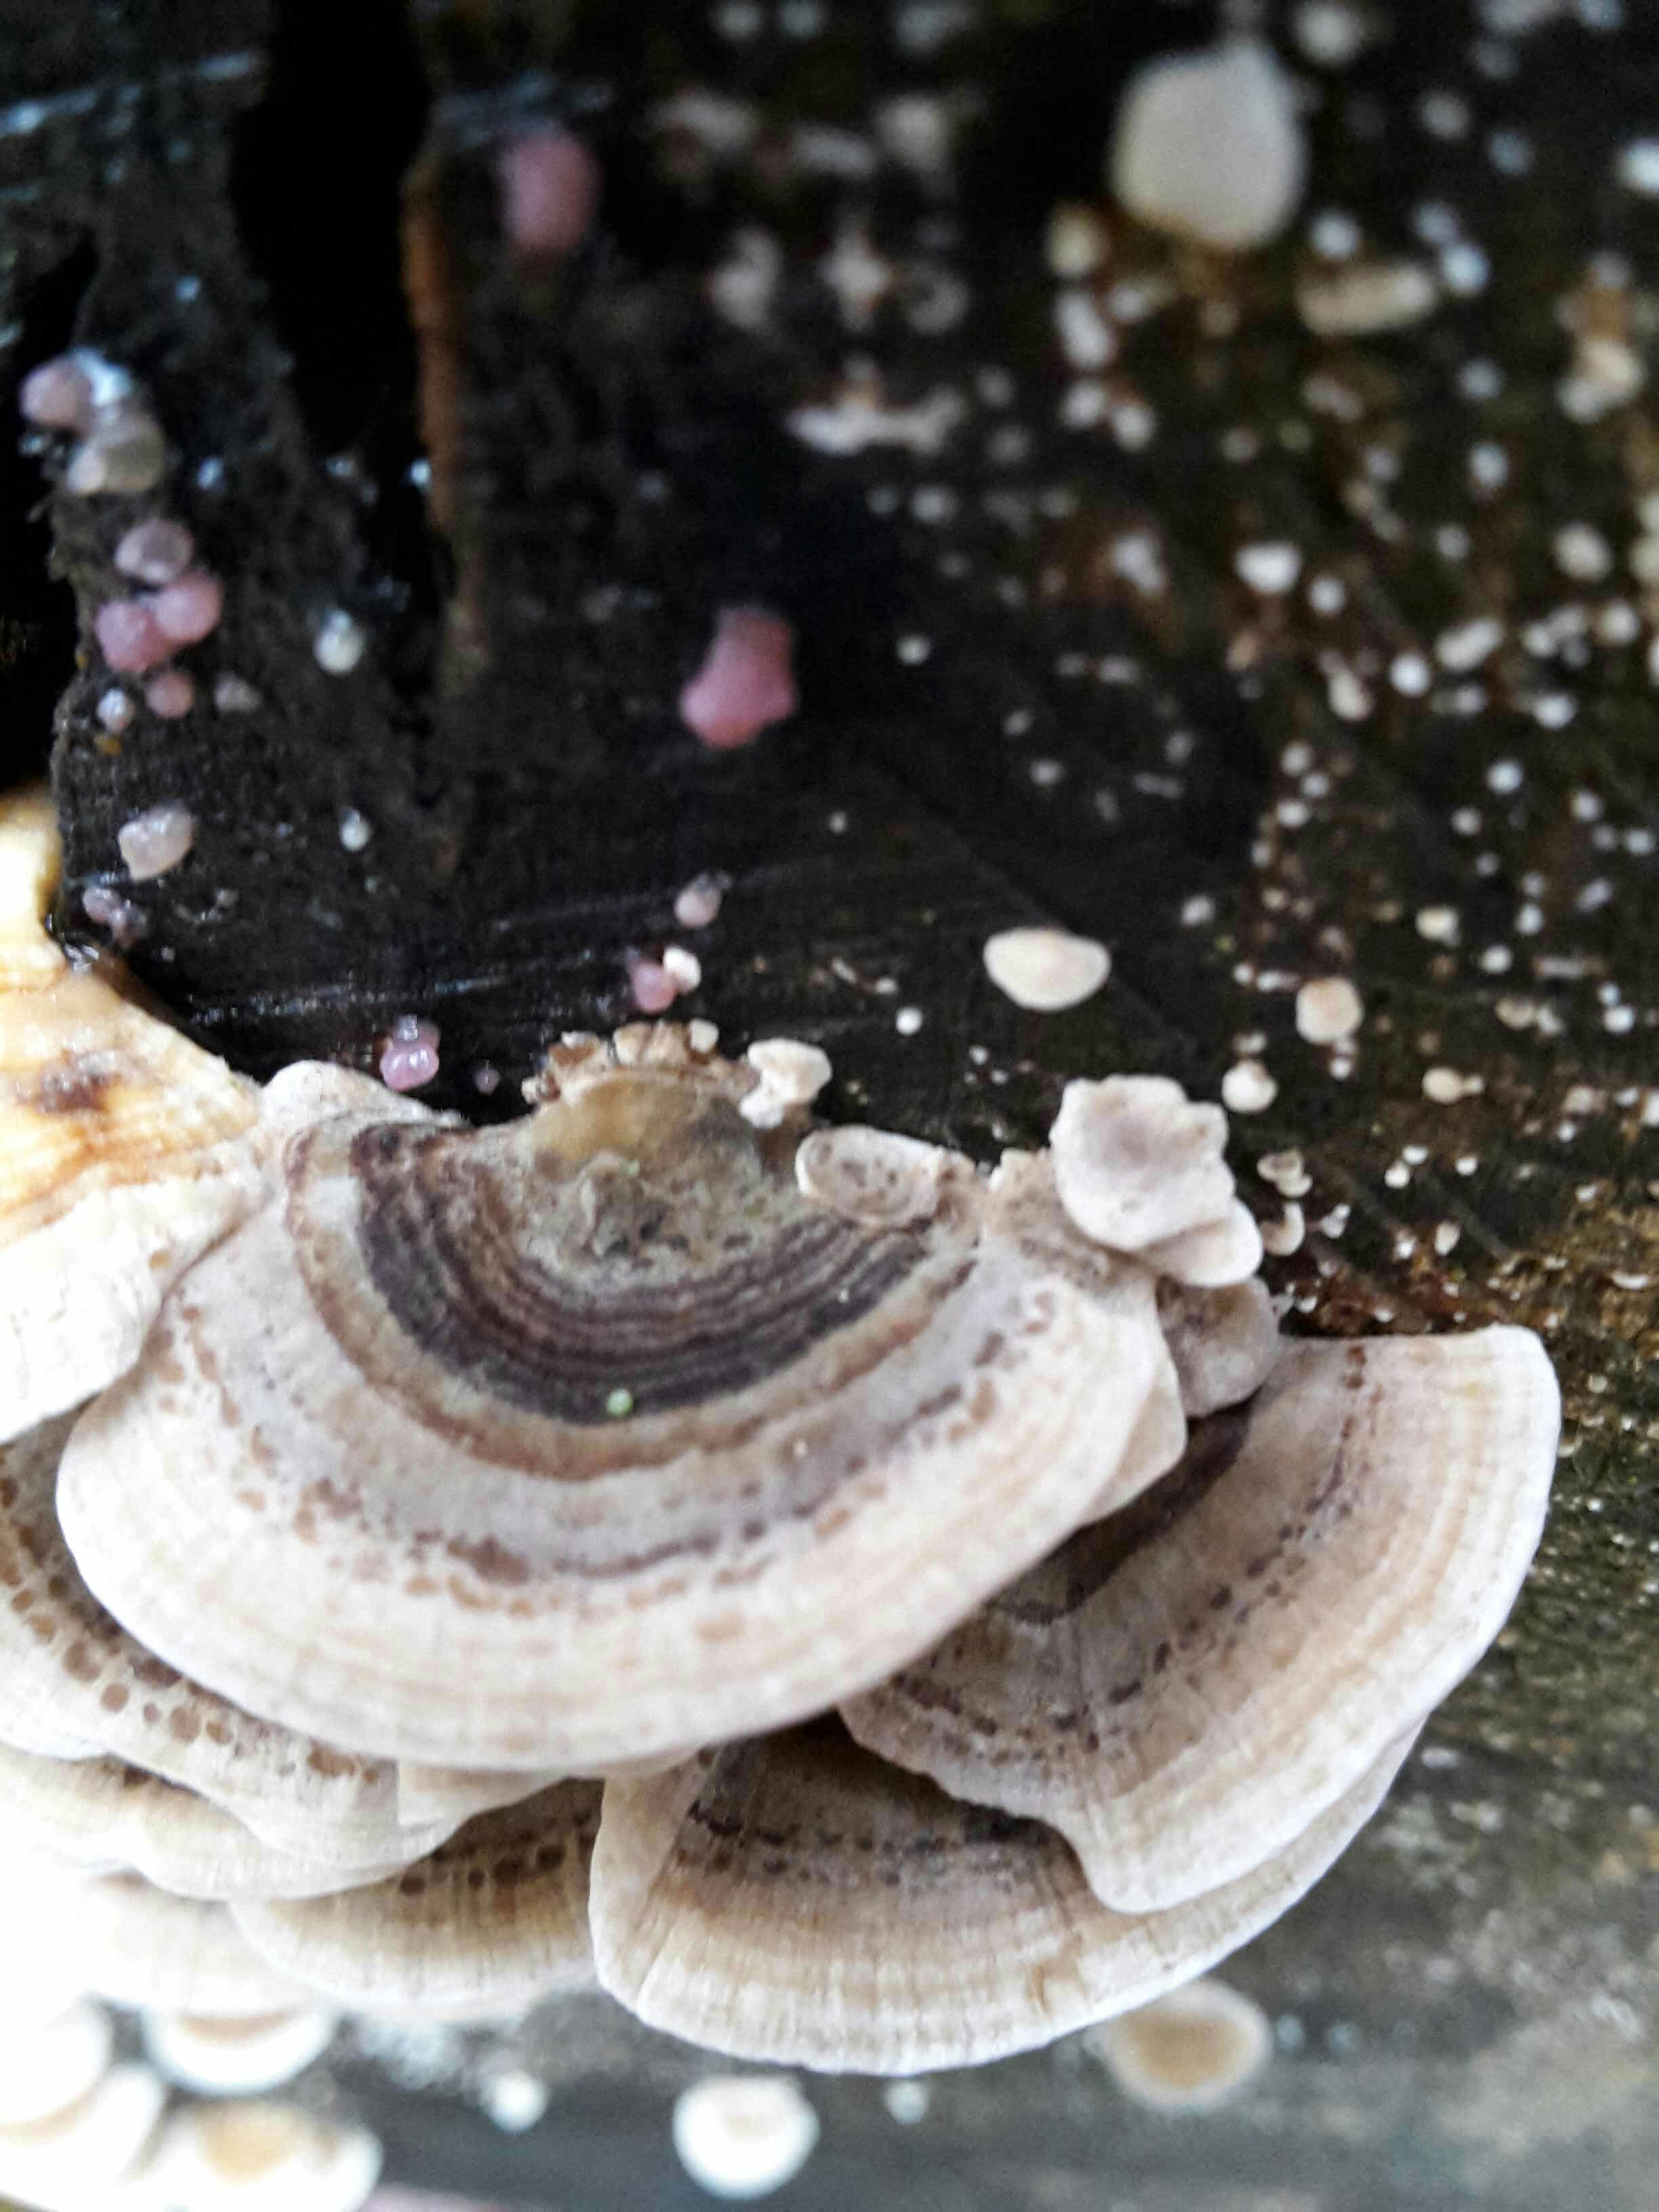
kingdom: Fungi
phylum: Basidiomycota
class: Agaricomycetes
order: Polyporales
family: Polyporaceae
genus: Trametes
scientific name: Trametes versicolor
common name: broget læderporesvamp
